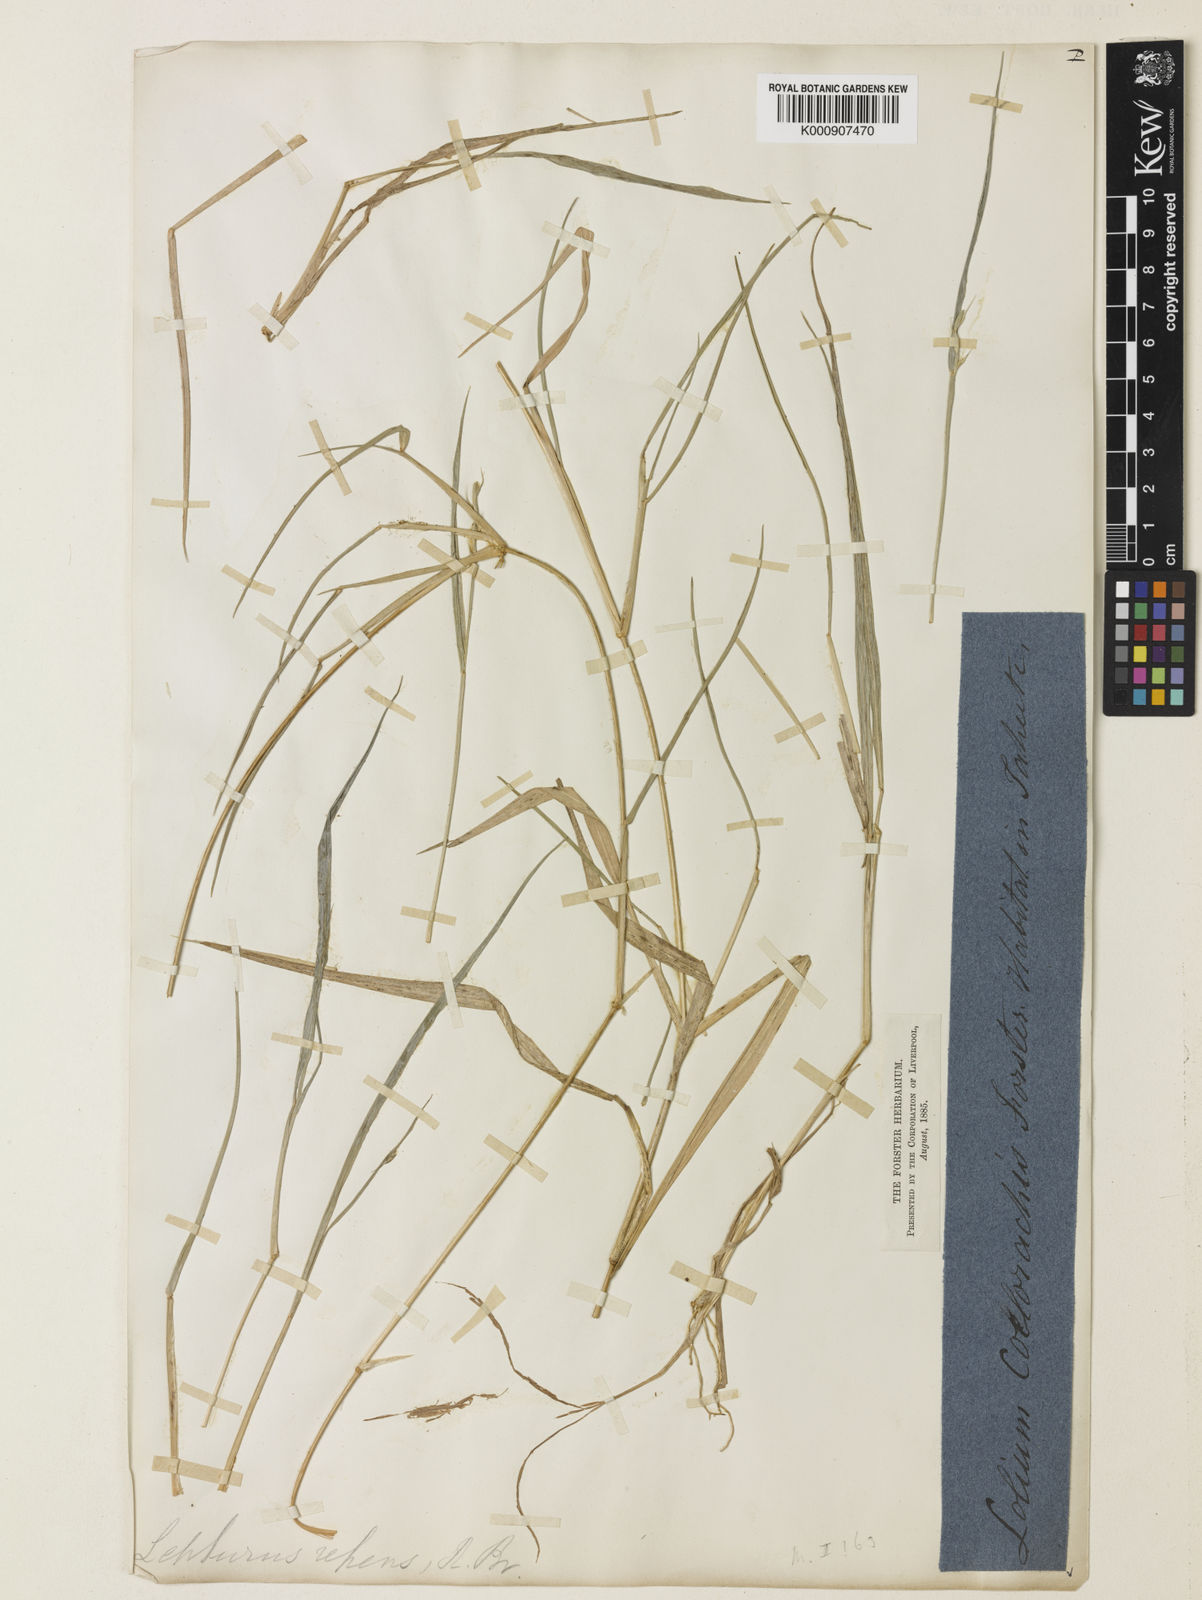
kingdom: Plantae
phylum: Tracheophyta
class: Liliopsida
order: Poales
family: Poaceae
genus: Lepturus
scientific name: Lepturus repens
